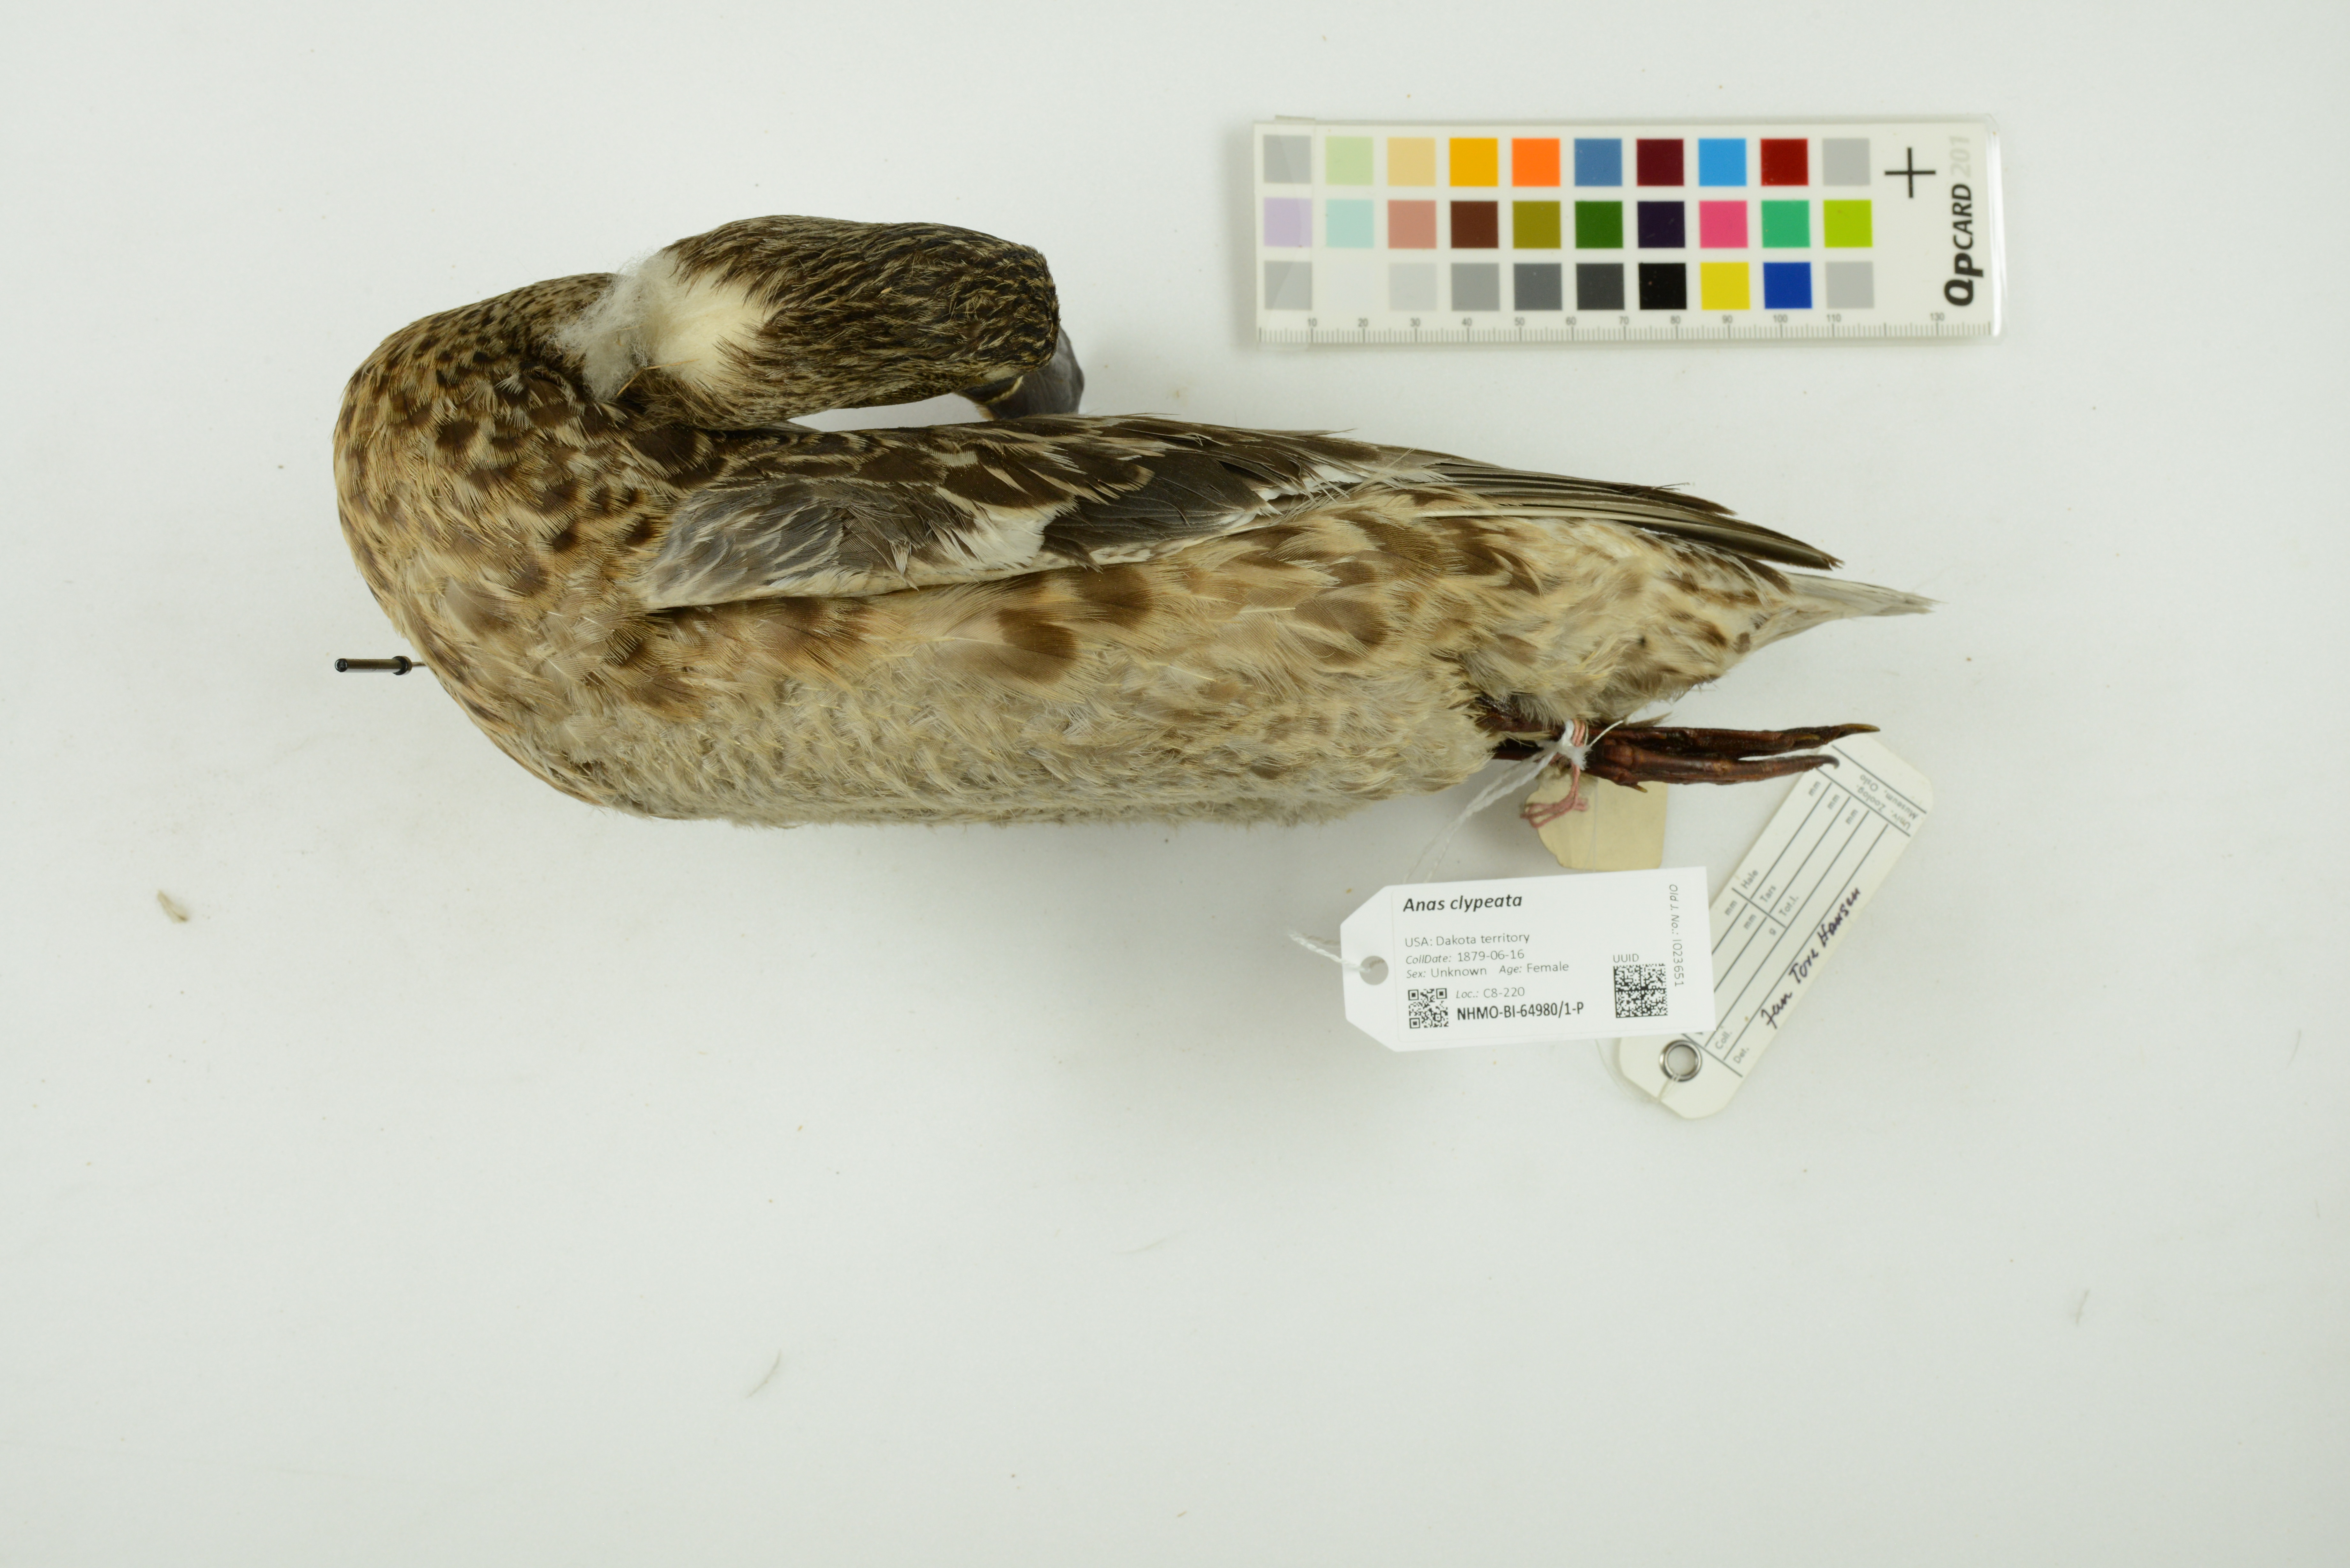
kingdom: Animalia
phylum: Chordata
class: Aves
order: Anseriformes
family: Anatidae
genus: Spatula
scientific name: Spatula clypeata
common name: Northern shoveler
